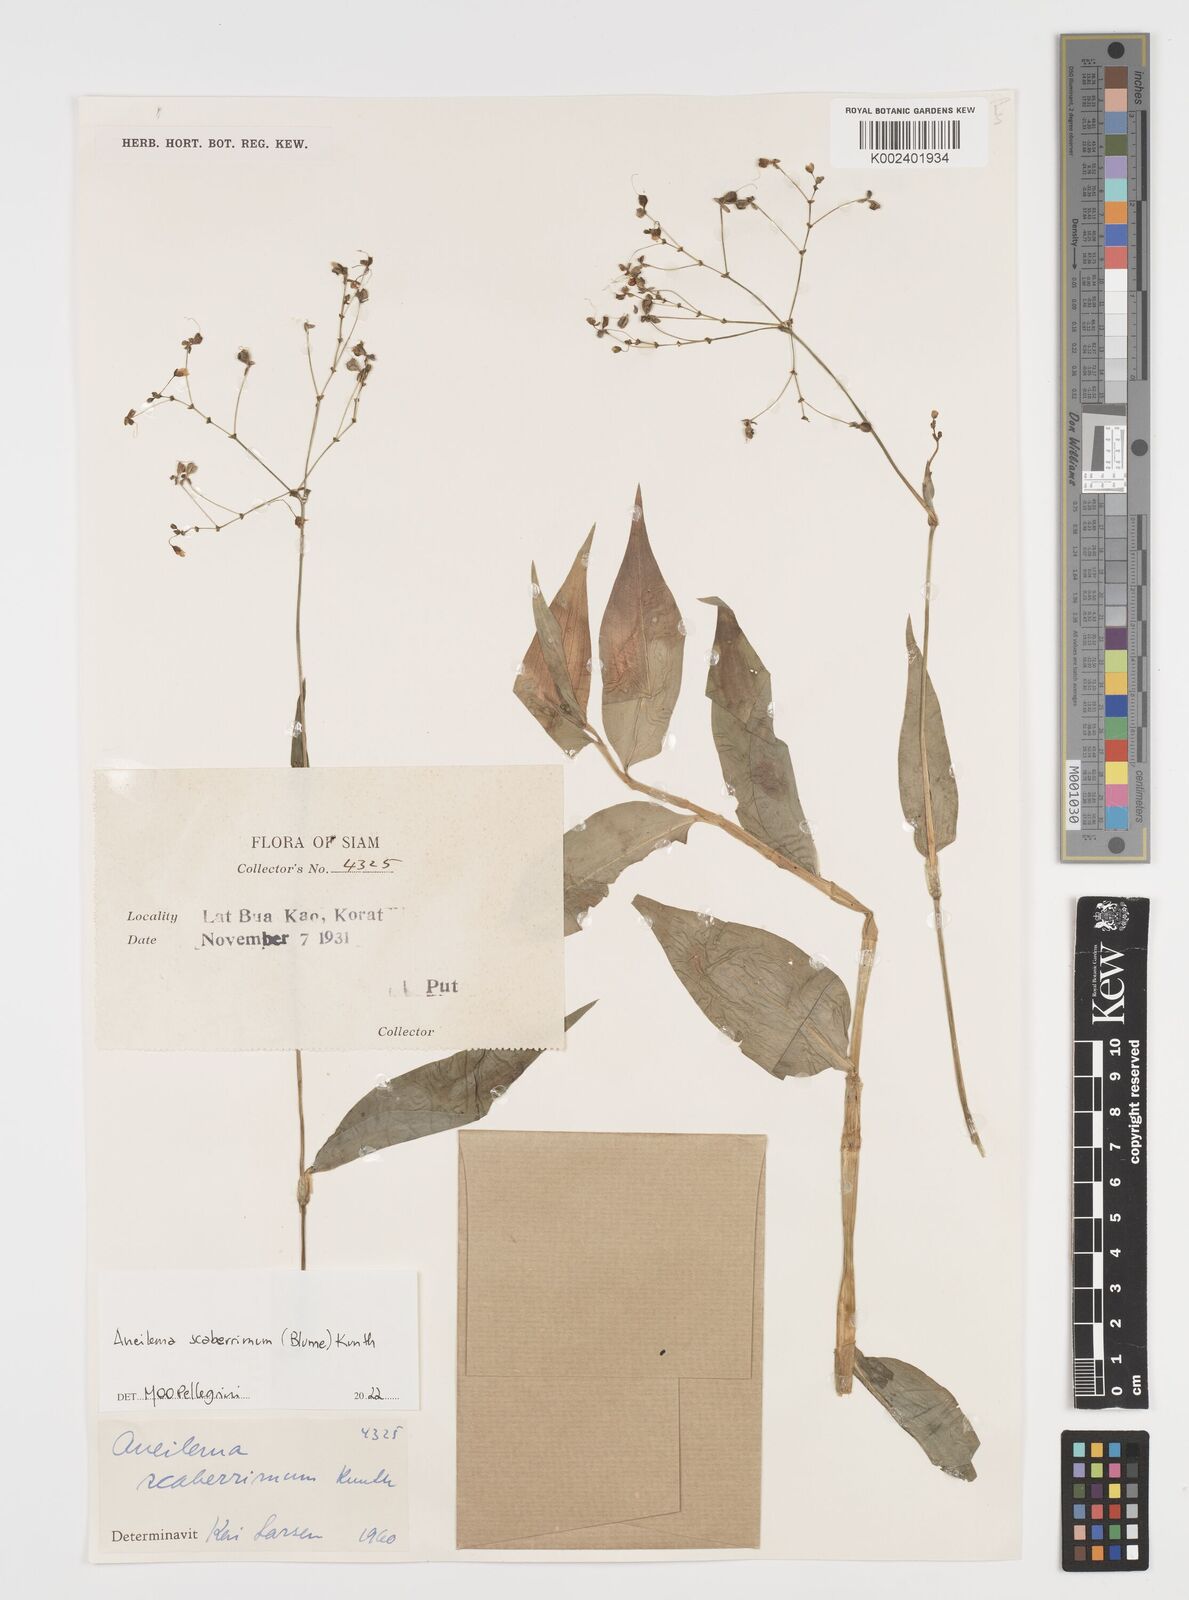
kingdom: Plantae
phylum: Tracheophyta
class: Liliopsida
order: Commelinales
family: Commelinaceae
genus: Rhopalephora
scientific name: Rhopalephora scaberrima
